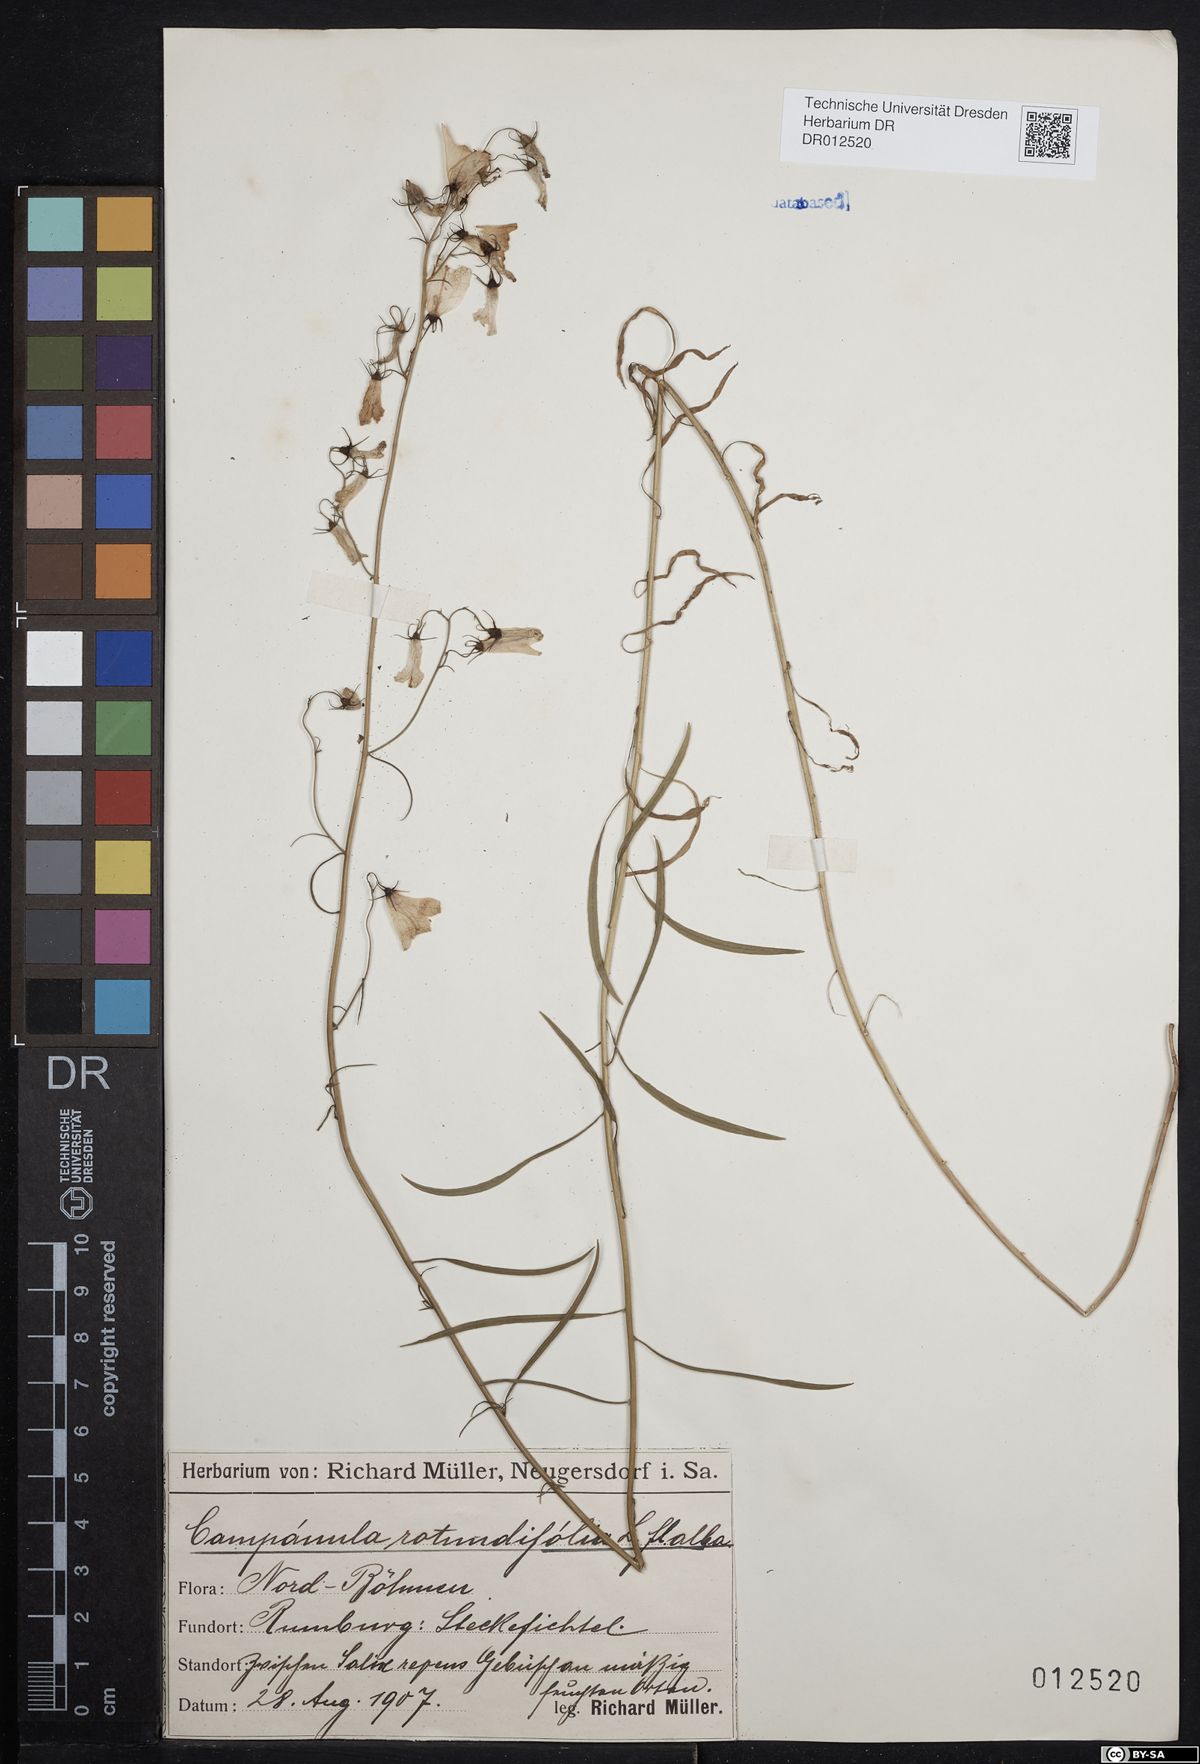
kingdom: Plantae
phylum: Tracheophyta
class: Magnoliopsida
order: Asterales
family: Campanulaceae
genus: Campanula
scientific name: Campanula rotundifolia
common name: Harebell
